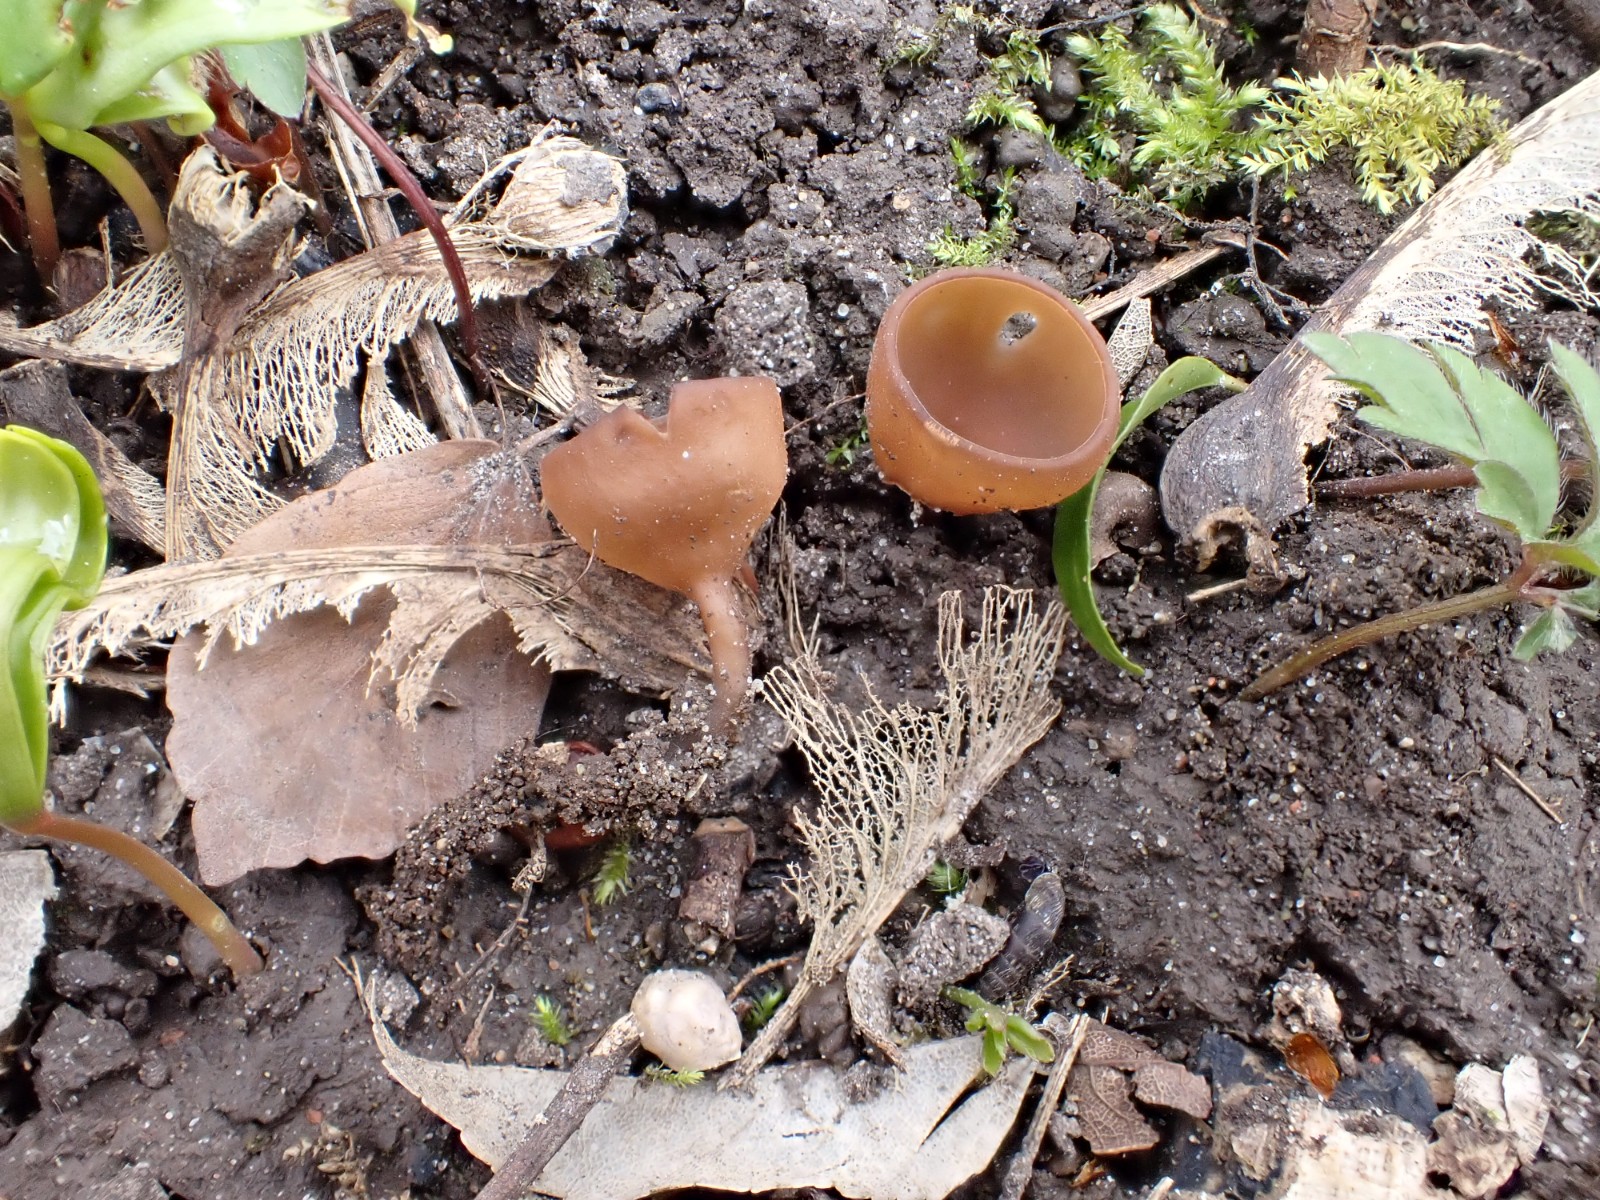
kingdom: Fungi
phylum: Ascomycota
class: Leotiomycetes
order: Helotiales
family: Sclerotiniaceae
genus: Dumontinia
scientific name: Dumontinia tuberosa
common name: anemone-knoldskive
